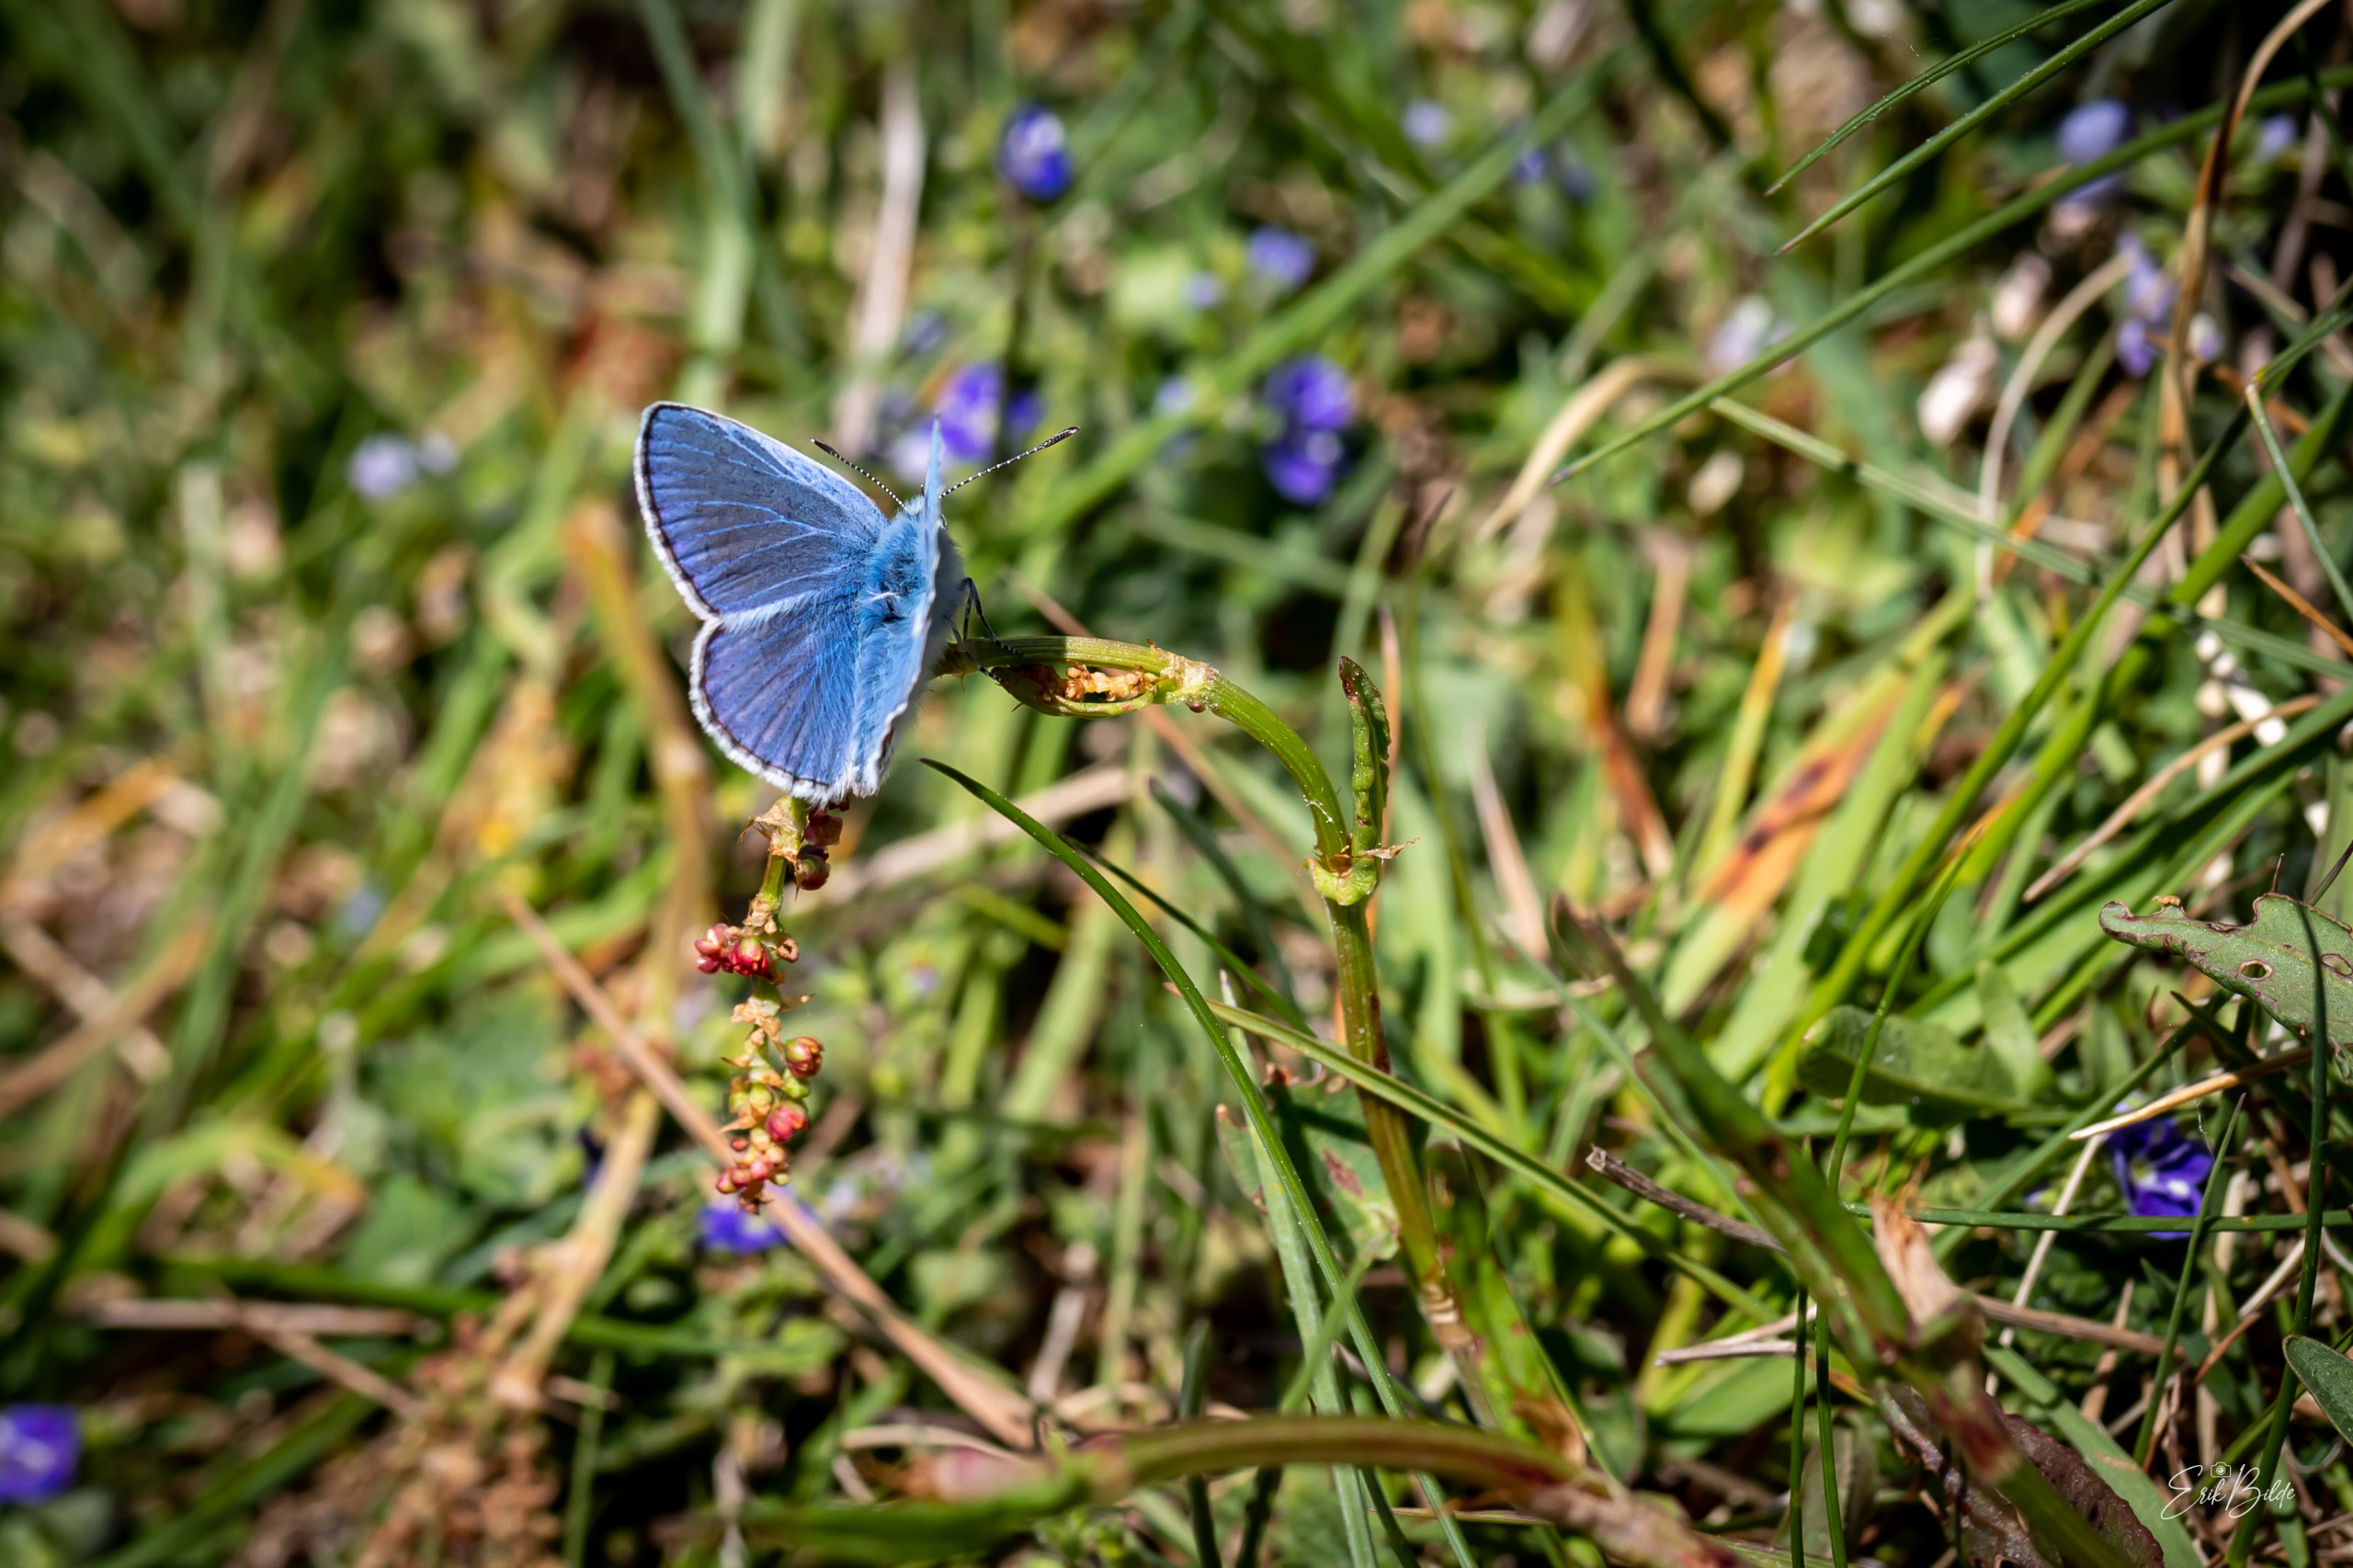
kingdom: Animalia
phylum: Arthropoda
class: Insecta
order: Lepidoptera
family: Lycaenidae
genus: Polyommatus
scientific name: Polyommatus icarus
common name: Almindelig blåfugl
